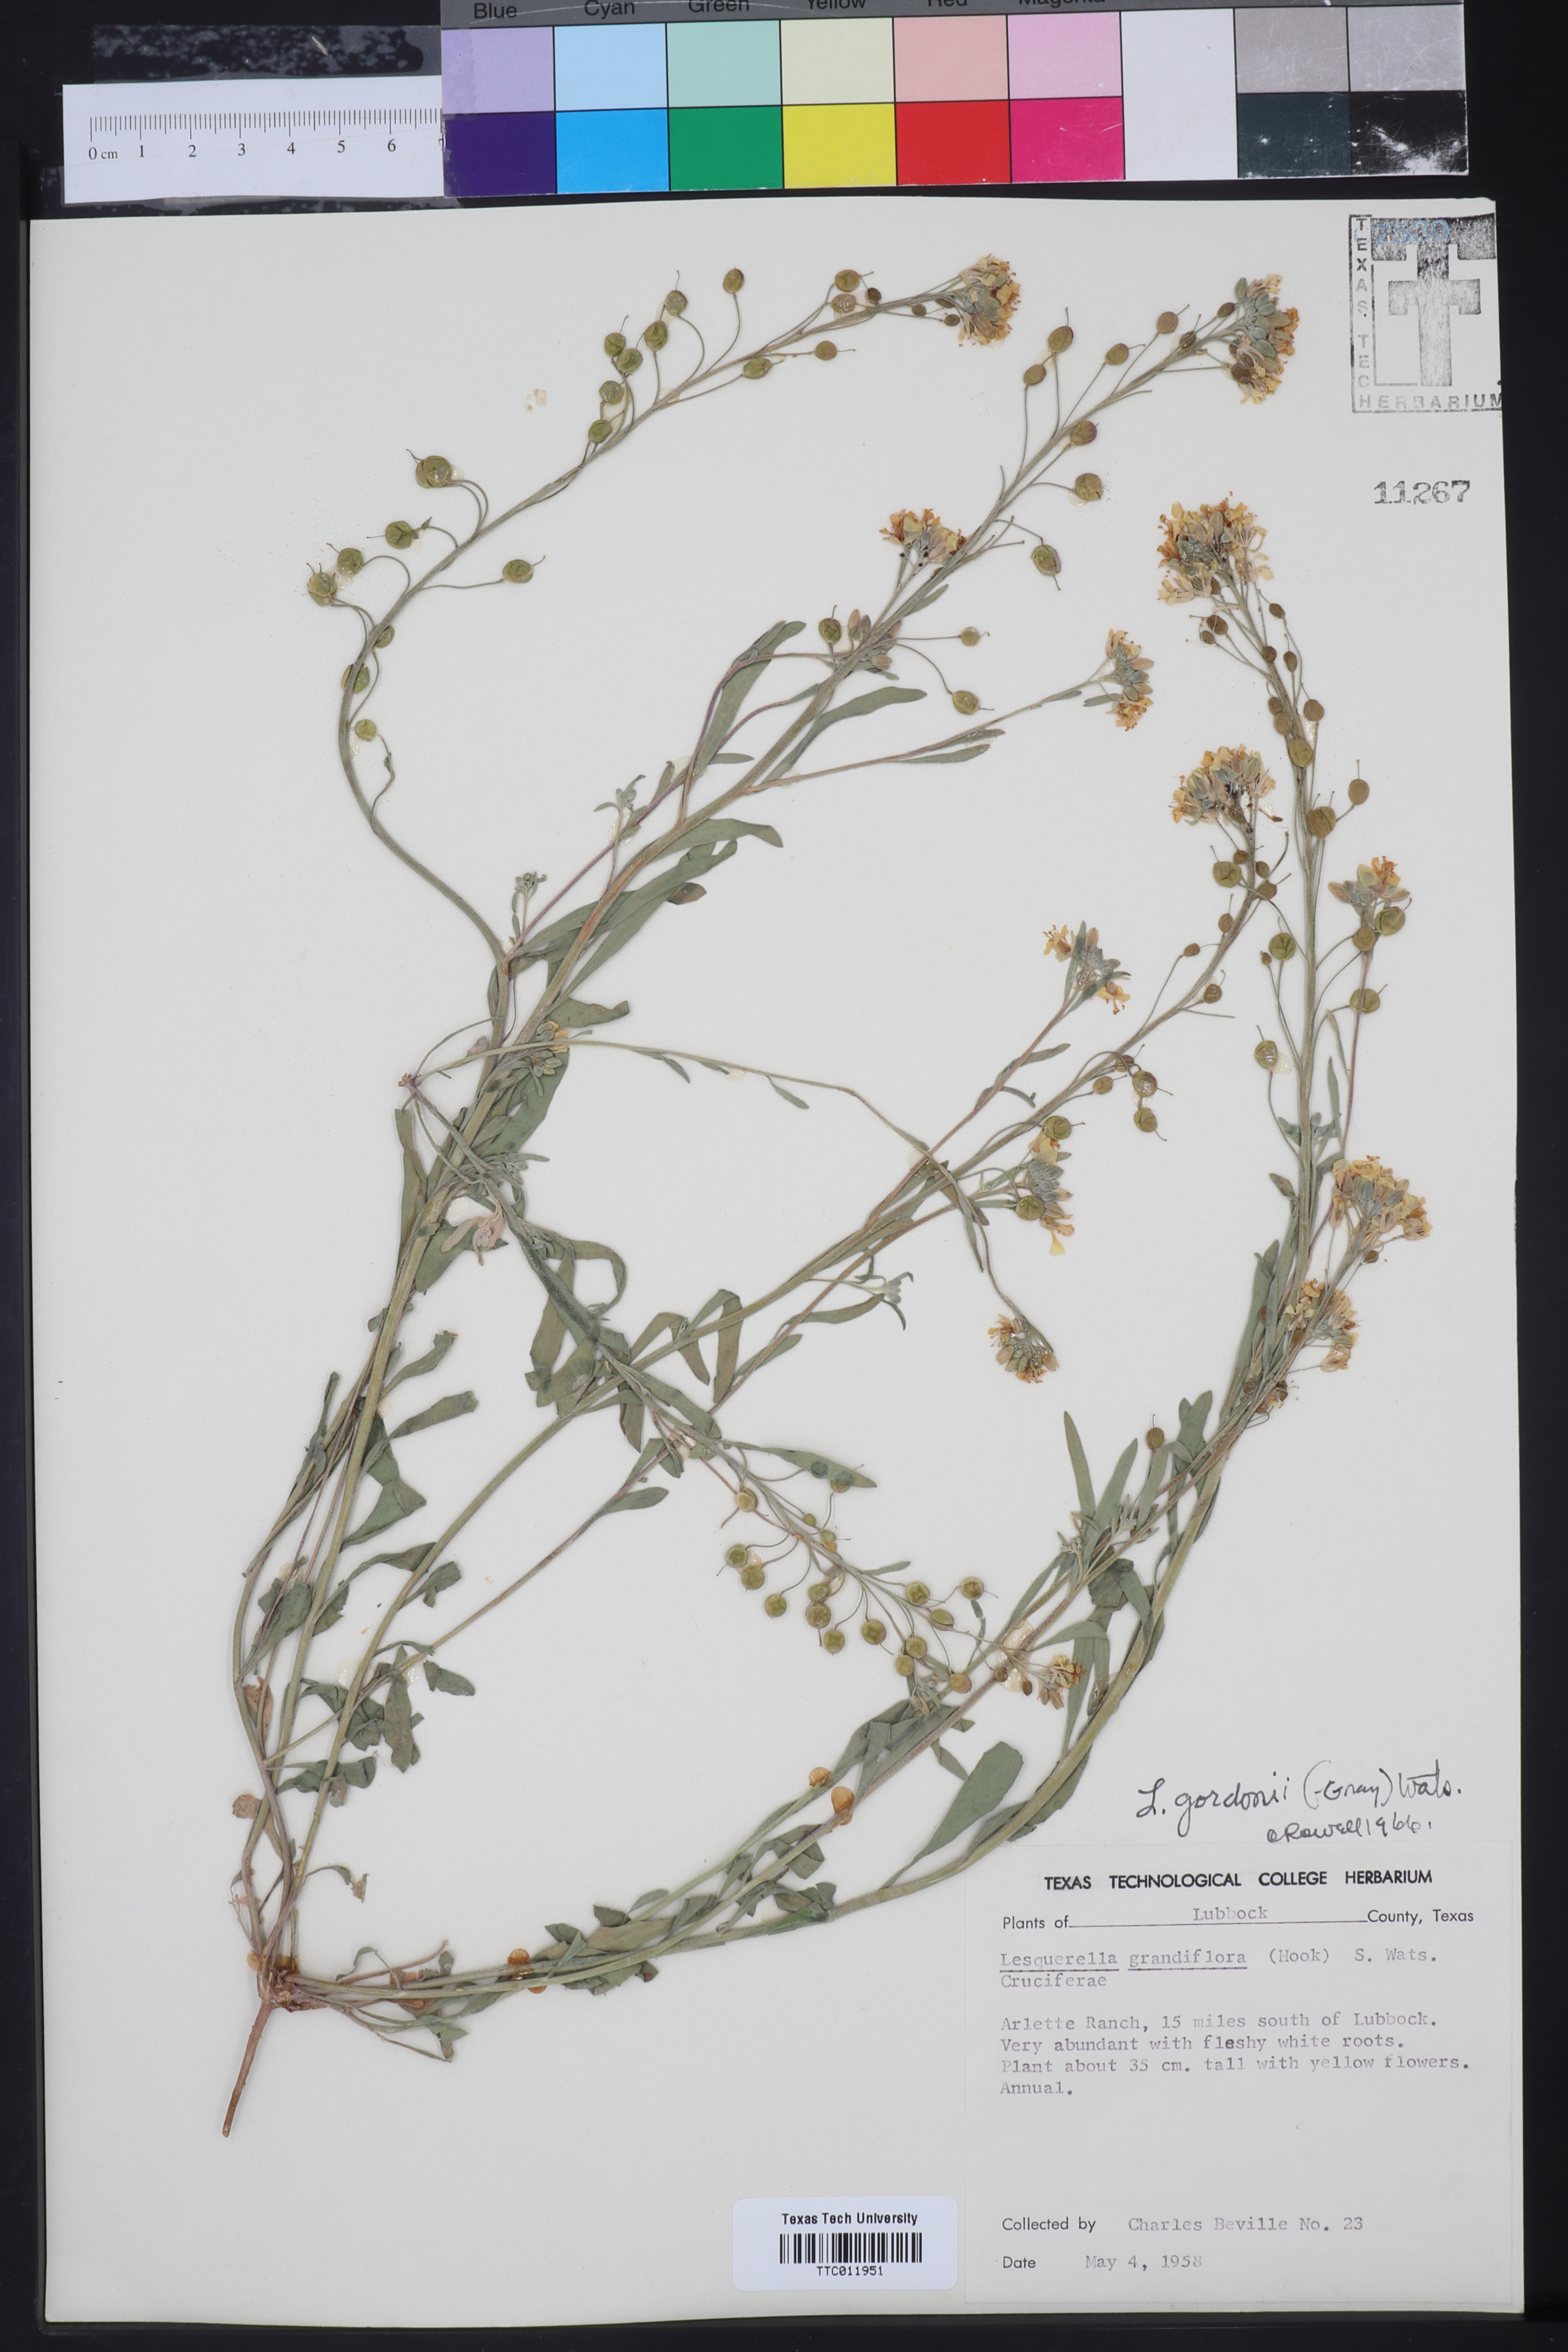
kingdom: Plantae
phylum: Tracheophyta
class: Magnoliopsida
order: Brassicales
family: Brassicaceae
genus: Physaria
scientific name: Physaria gordonii
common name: Gordon's bladderpod
